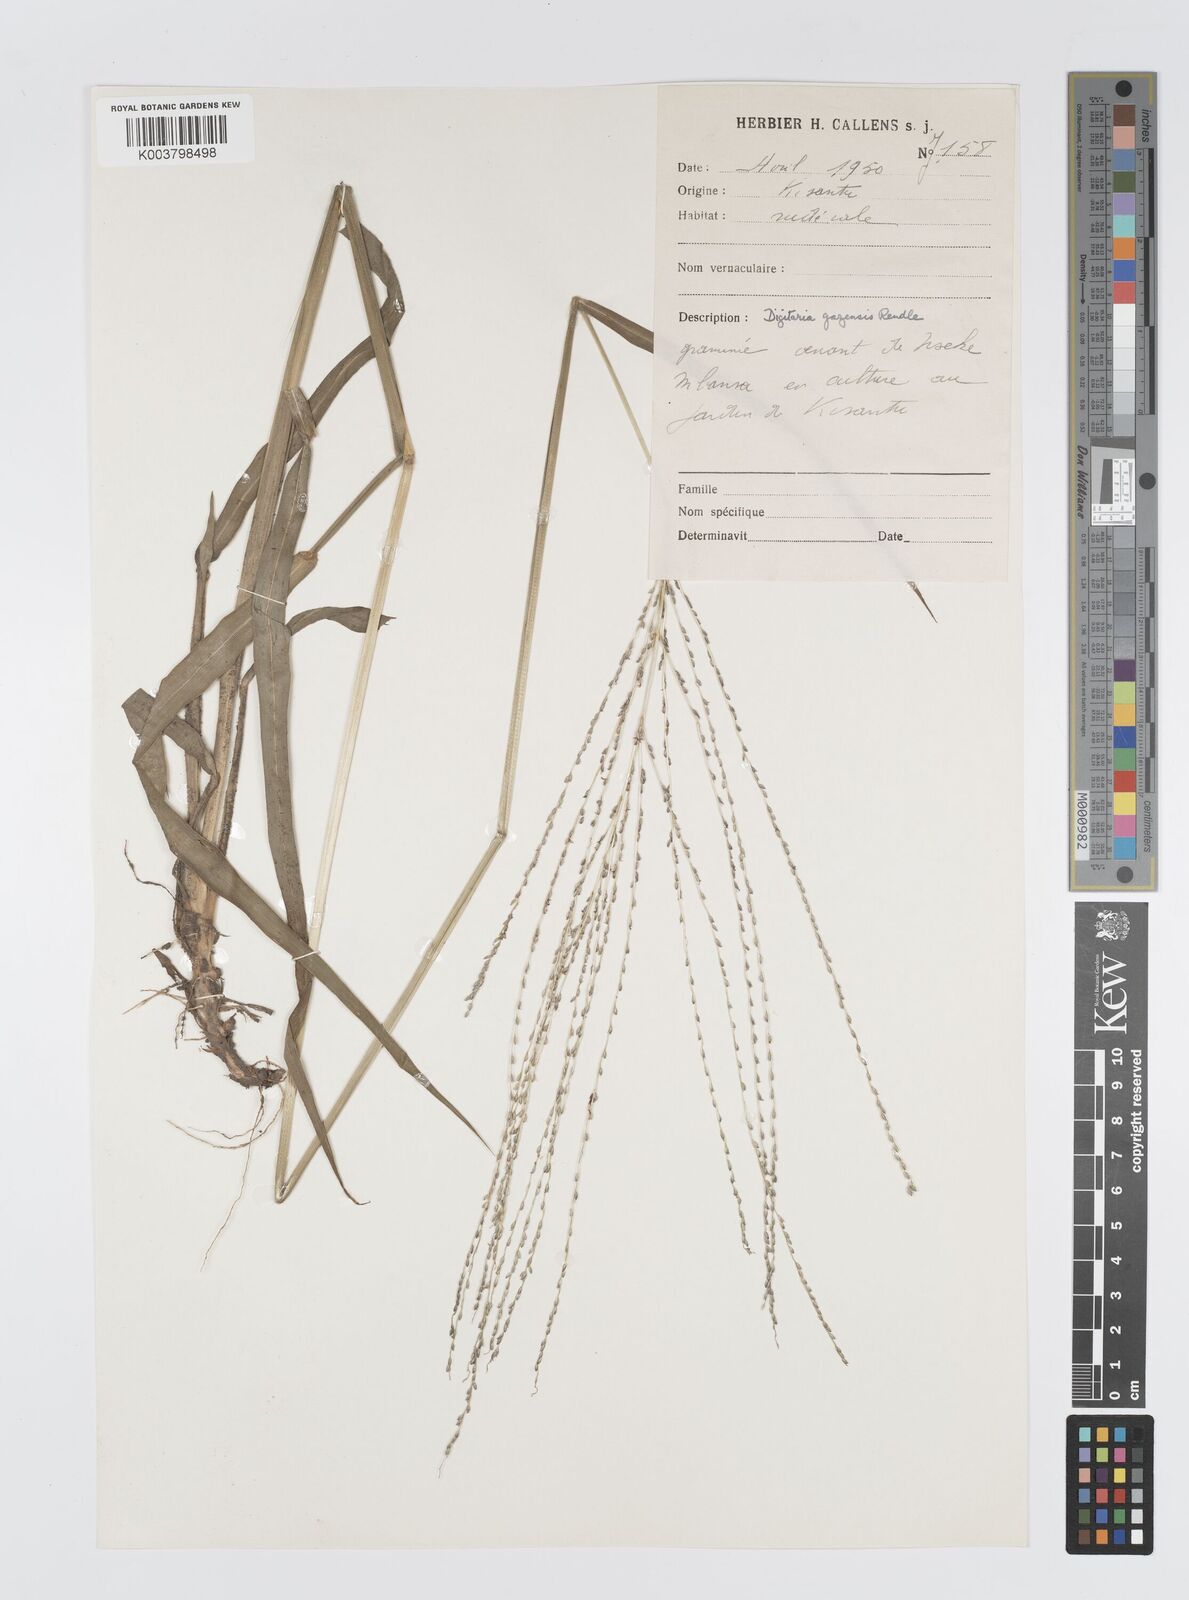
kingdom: Plantae
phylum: Tracheophyta
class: Liliopsida
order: Poales
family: Poaceae
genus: Digitaria
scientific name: Digitaria gazensis
